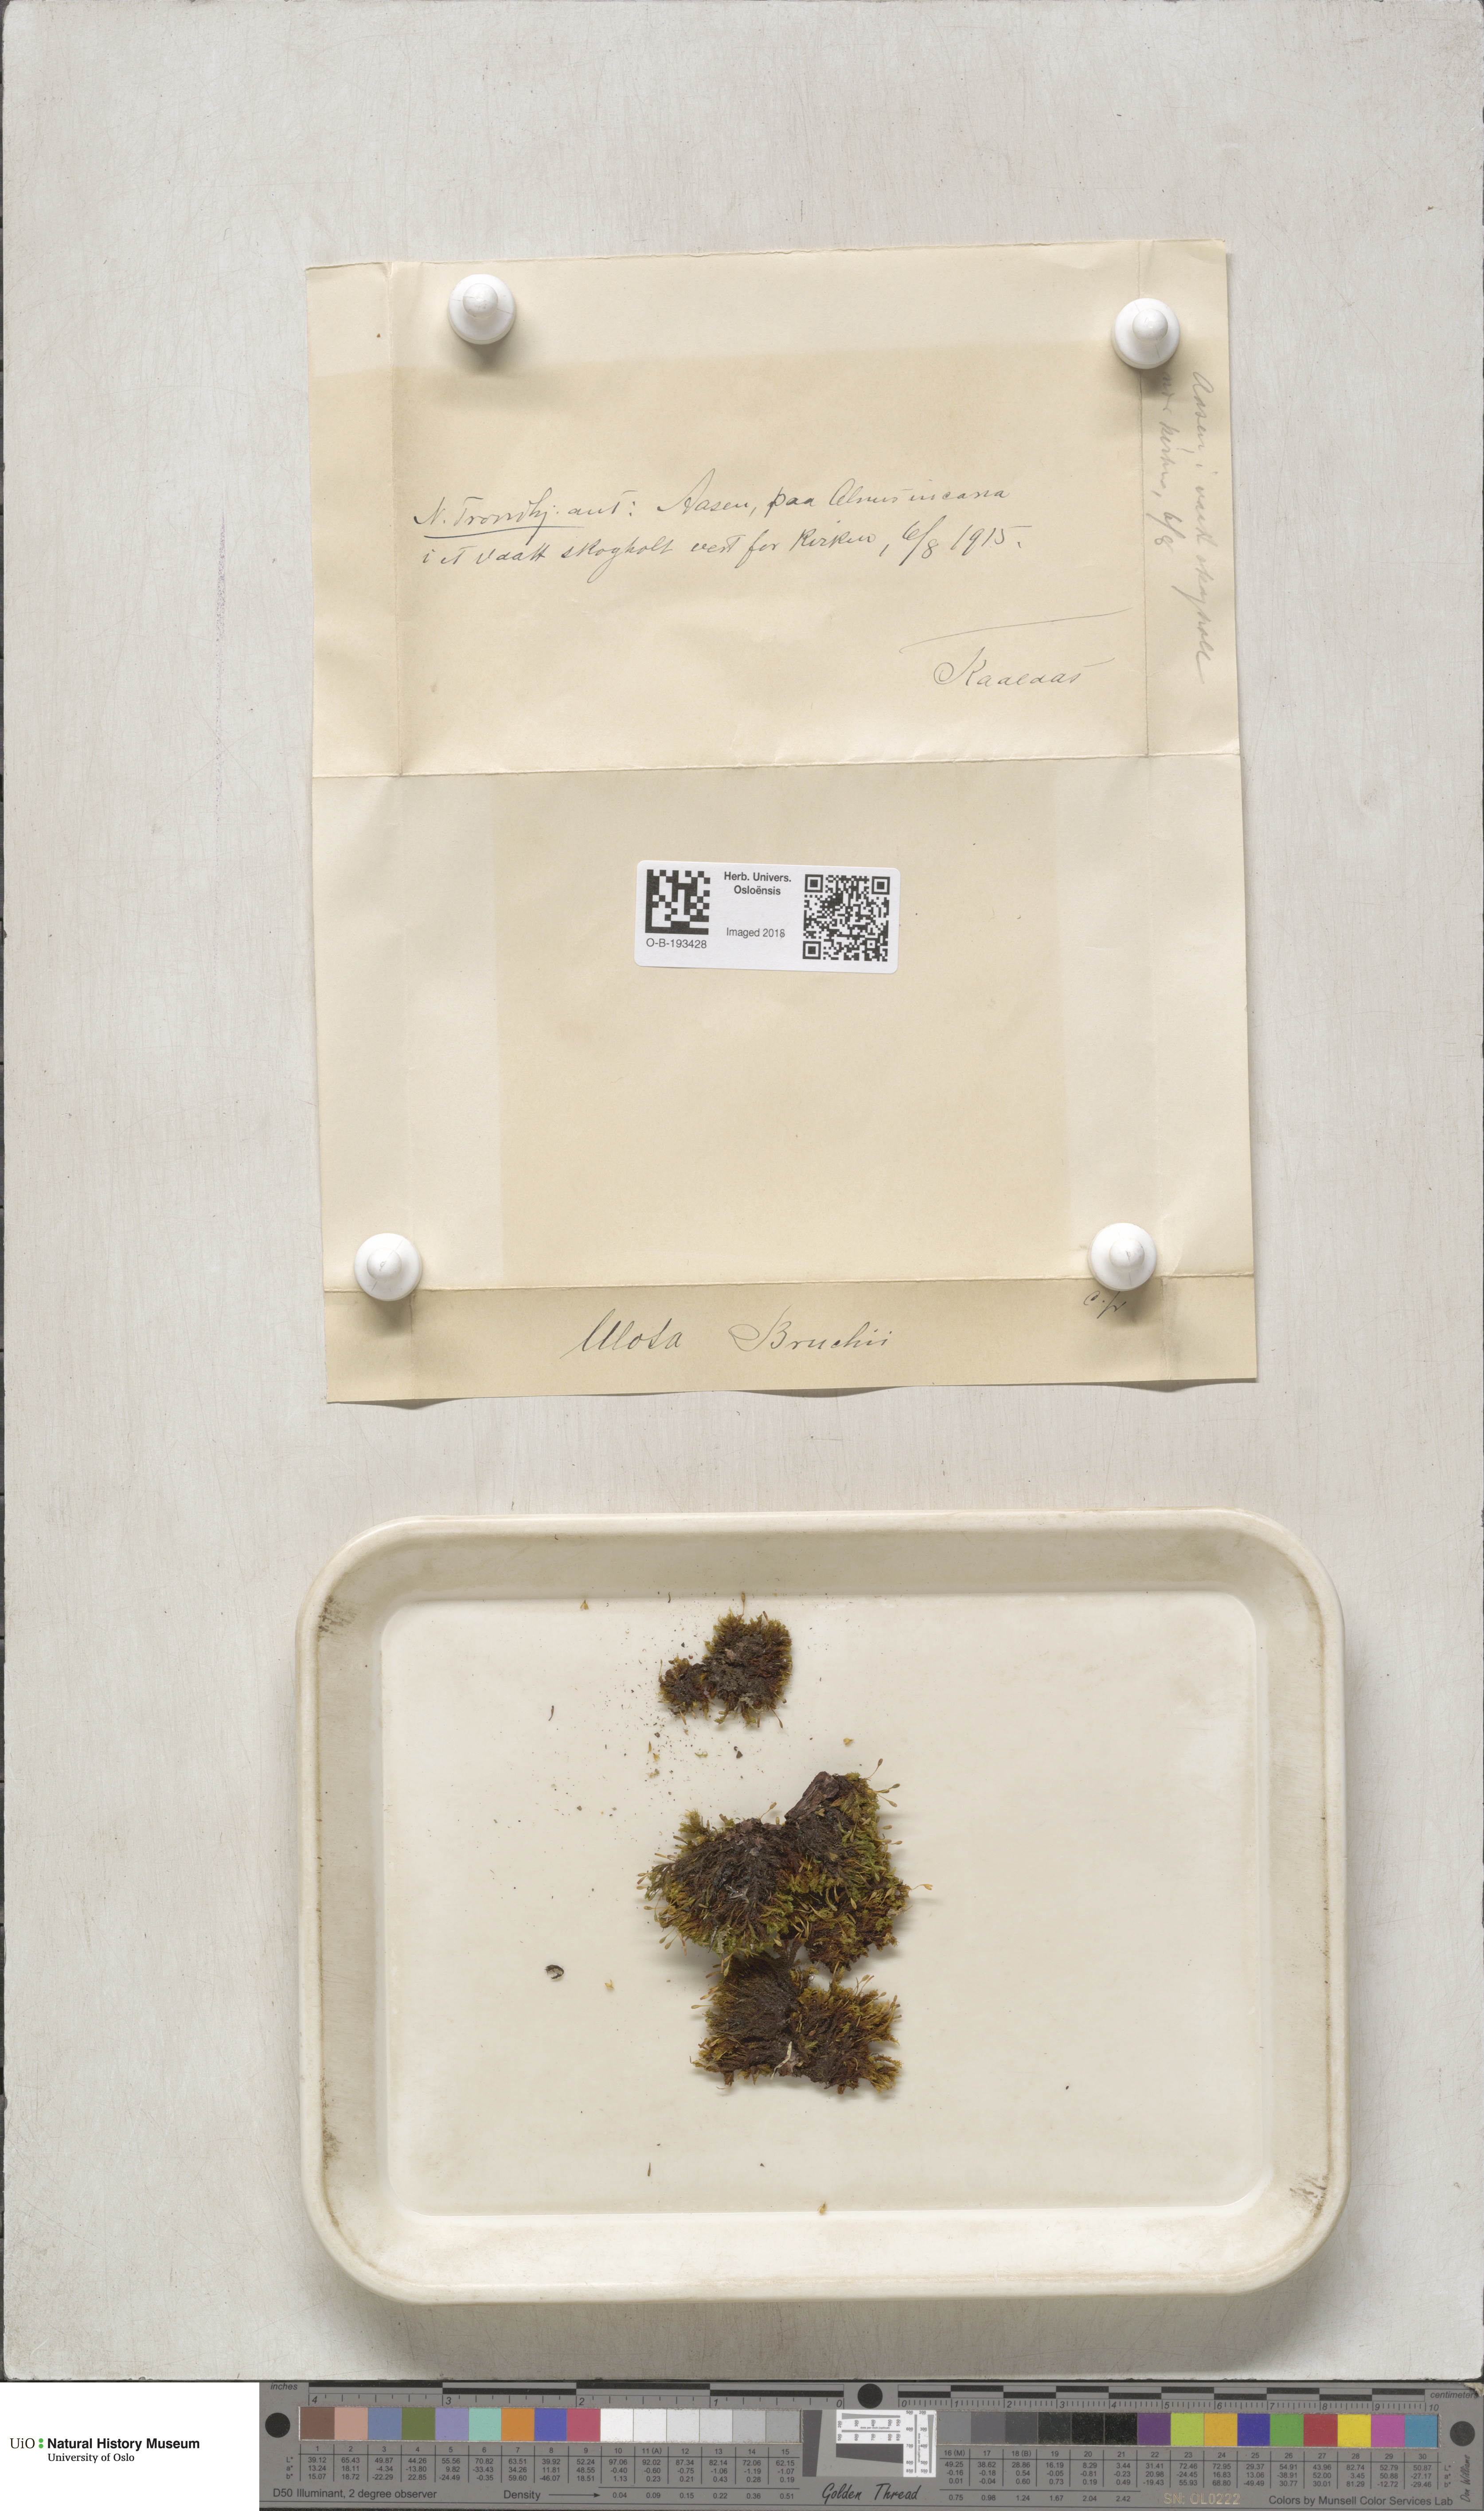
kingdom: Plantae
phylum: Bryophyta
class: Bryopsida
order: Orthotrichales
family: Orthotrichaceae
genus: Ulota
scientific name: Ulota bruchii
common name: Bruch's pincushion
